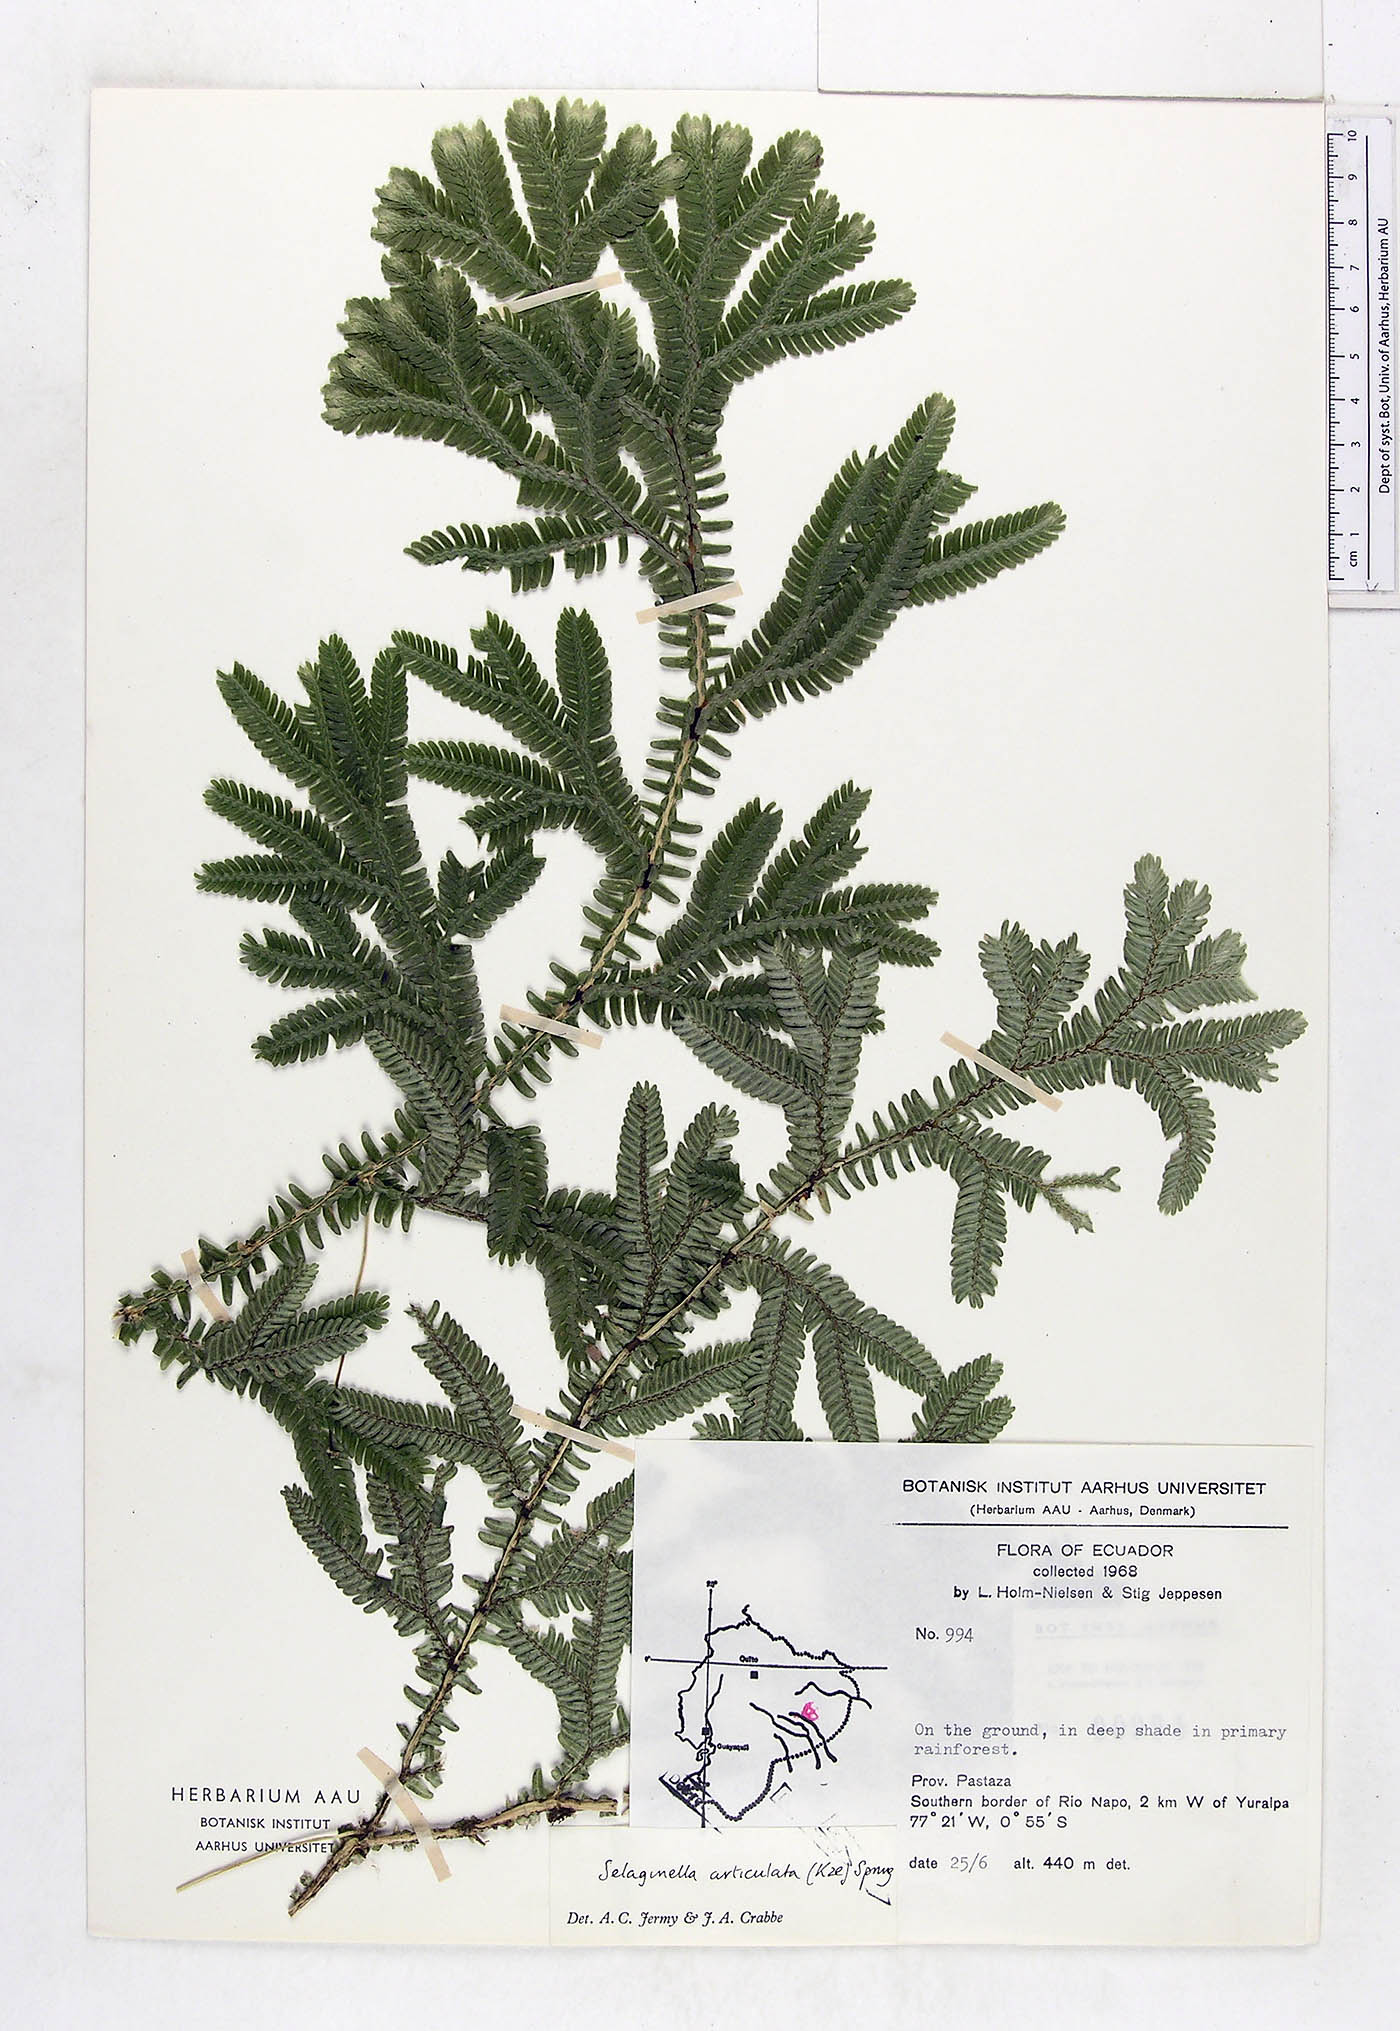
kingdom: Plantae
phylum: Tracheophyta
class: Lycopodiopsida
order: Selaginellales
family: Selaginellaceae
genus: Selaginella
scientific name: Selaginella articulata
